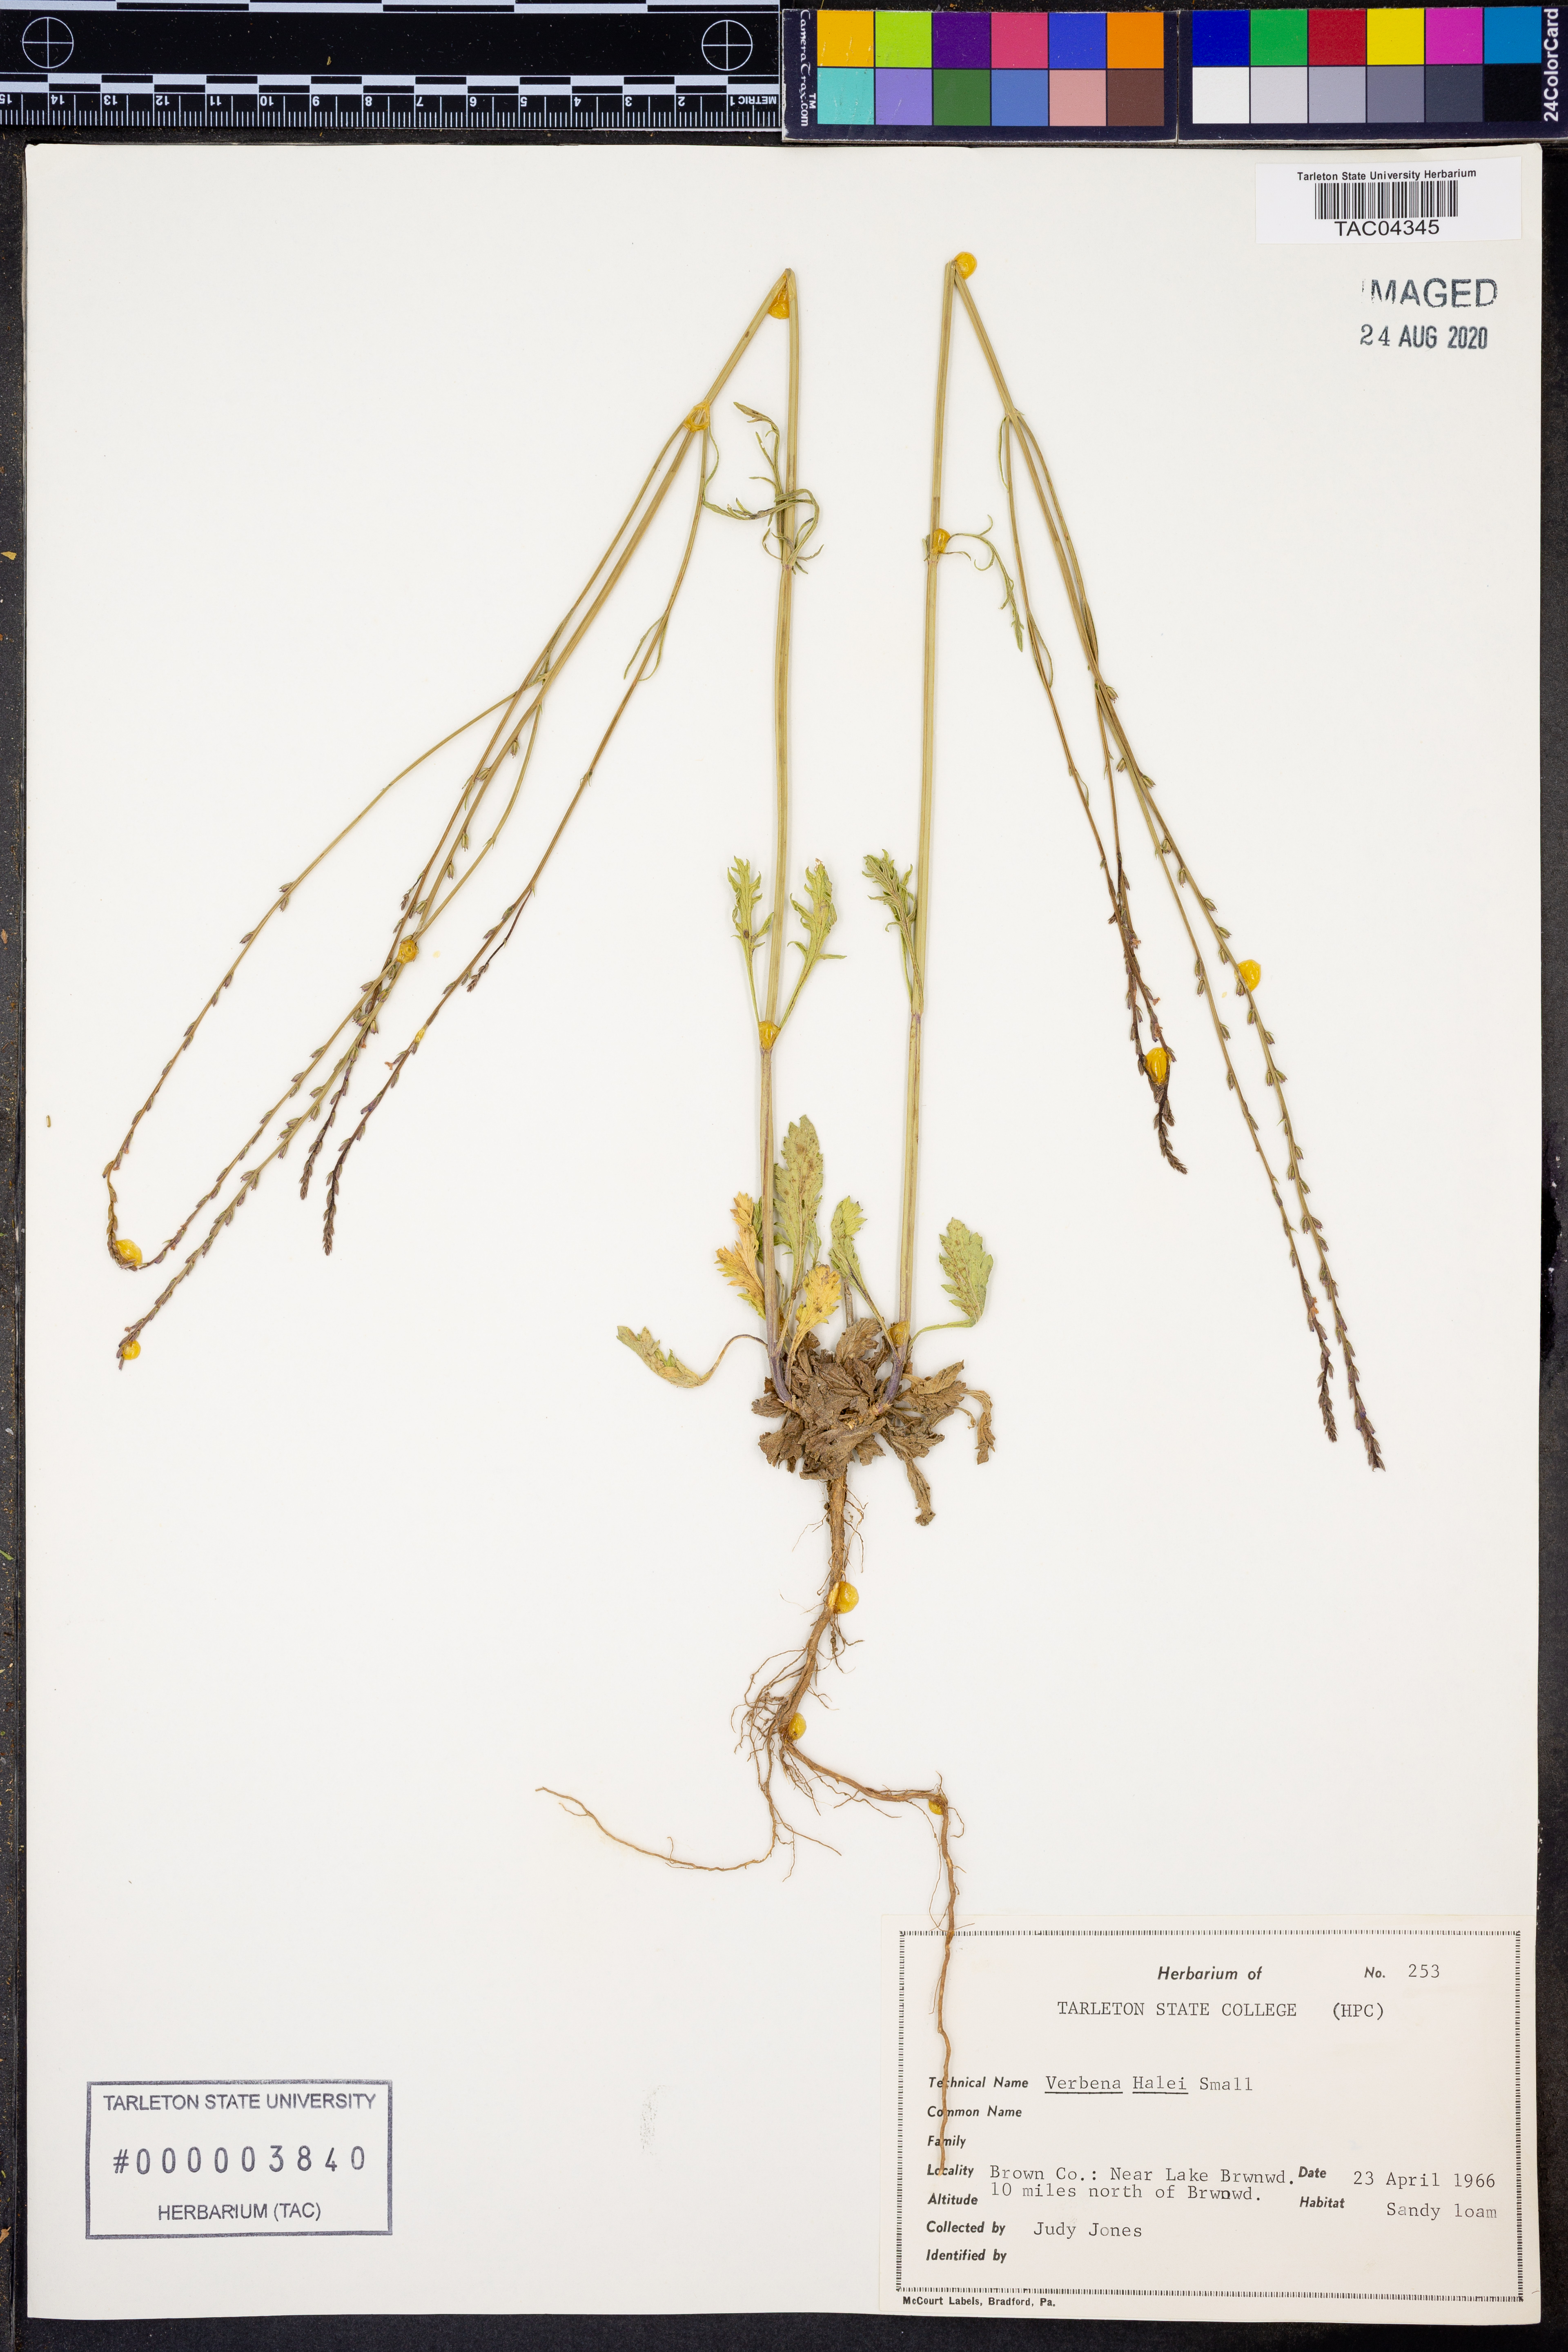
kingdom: Plantae
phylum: Tracheophyta
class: Magnoliopsida
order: Lamiales
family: Verbenaceae
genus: Verbena
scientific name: Verbena halei
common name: Texas vervain
